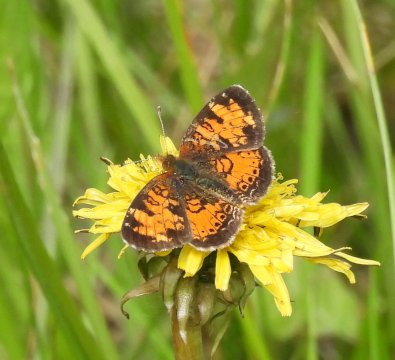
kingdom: Animalia
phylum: Arthropoda
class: Insecta
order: Lepidoptera
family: Nymphalidae
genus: Phyciodes
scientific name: Phyciodes tharos
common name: Northern Crescent
